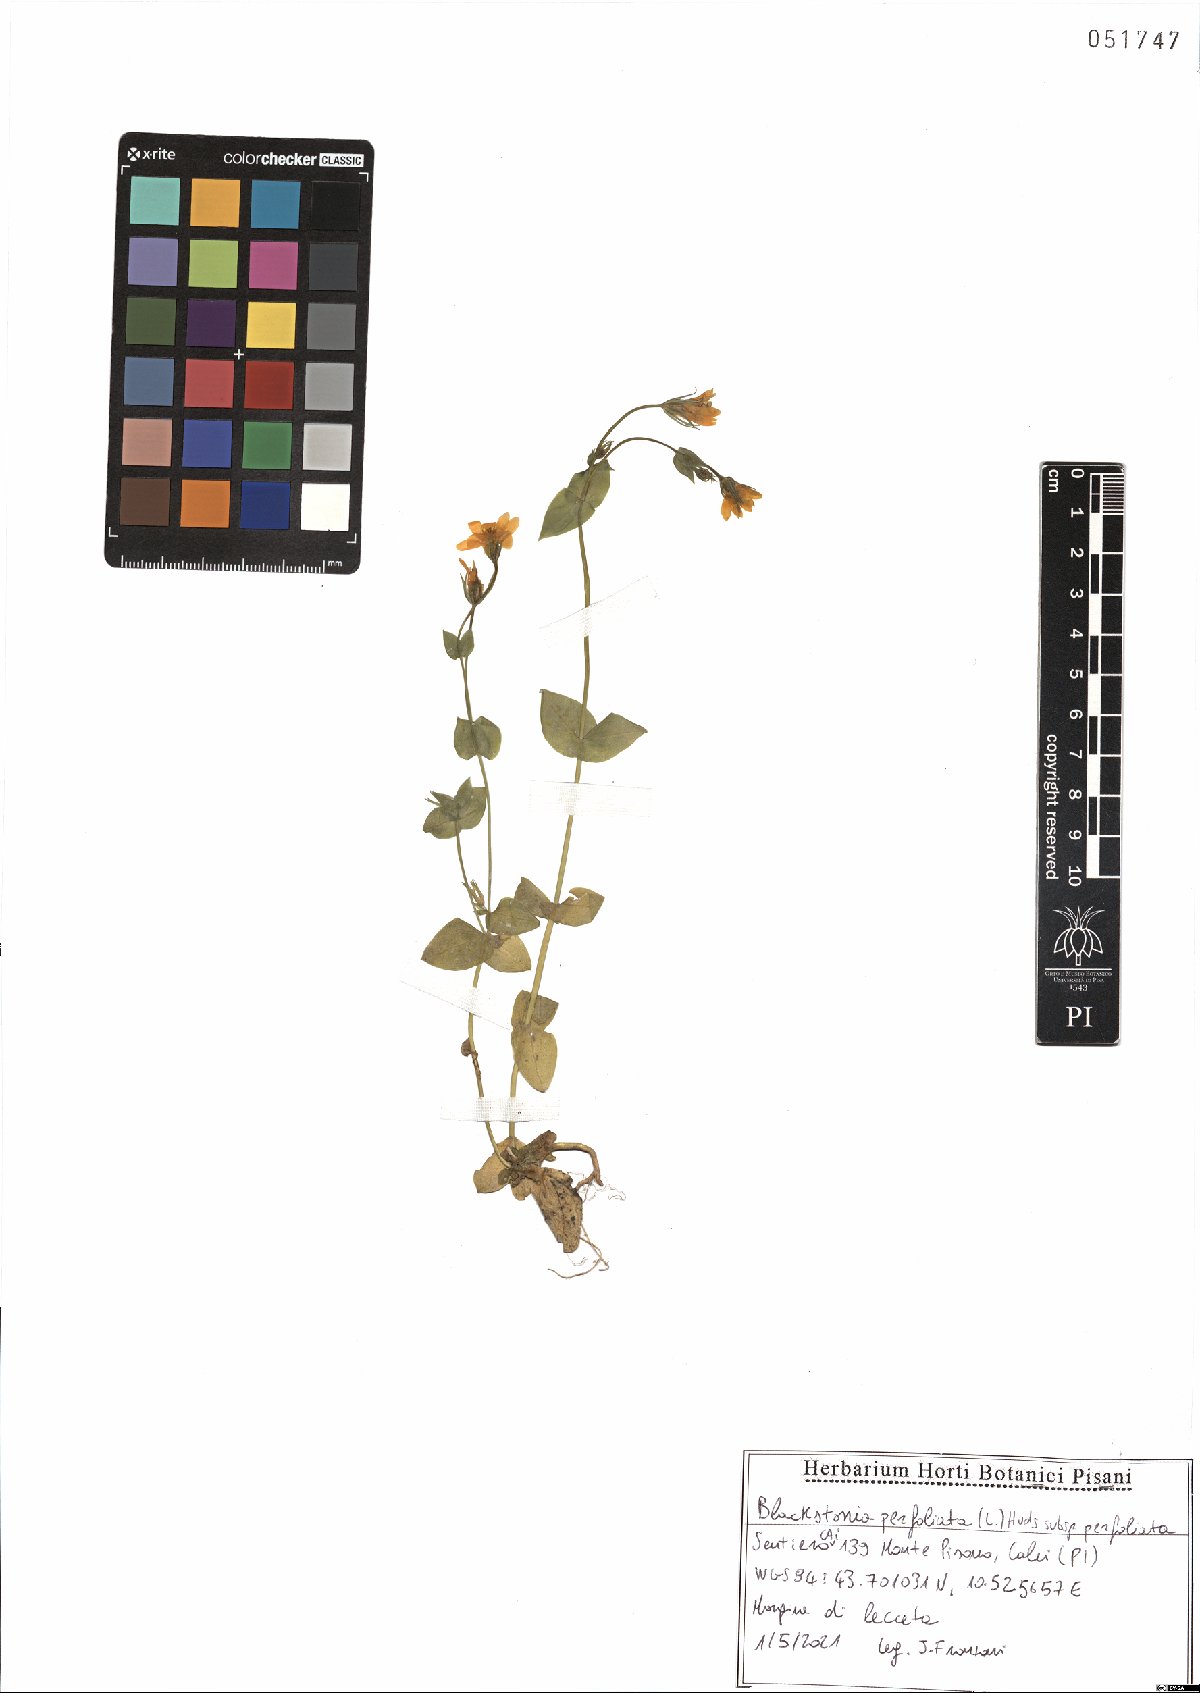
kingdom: Plantae
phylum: Tracheophyta
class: Magnoliopsida
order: Gentianales
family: Gentianaceae
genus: Blackstonia
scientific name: Blackstonia perfoliata
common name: Yellow-wort
